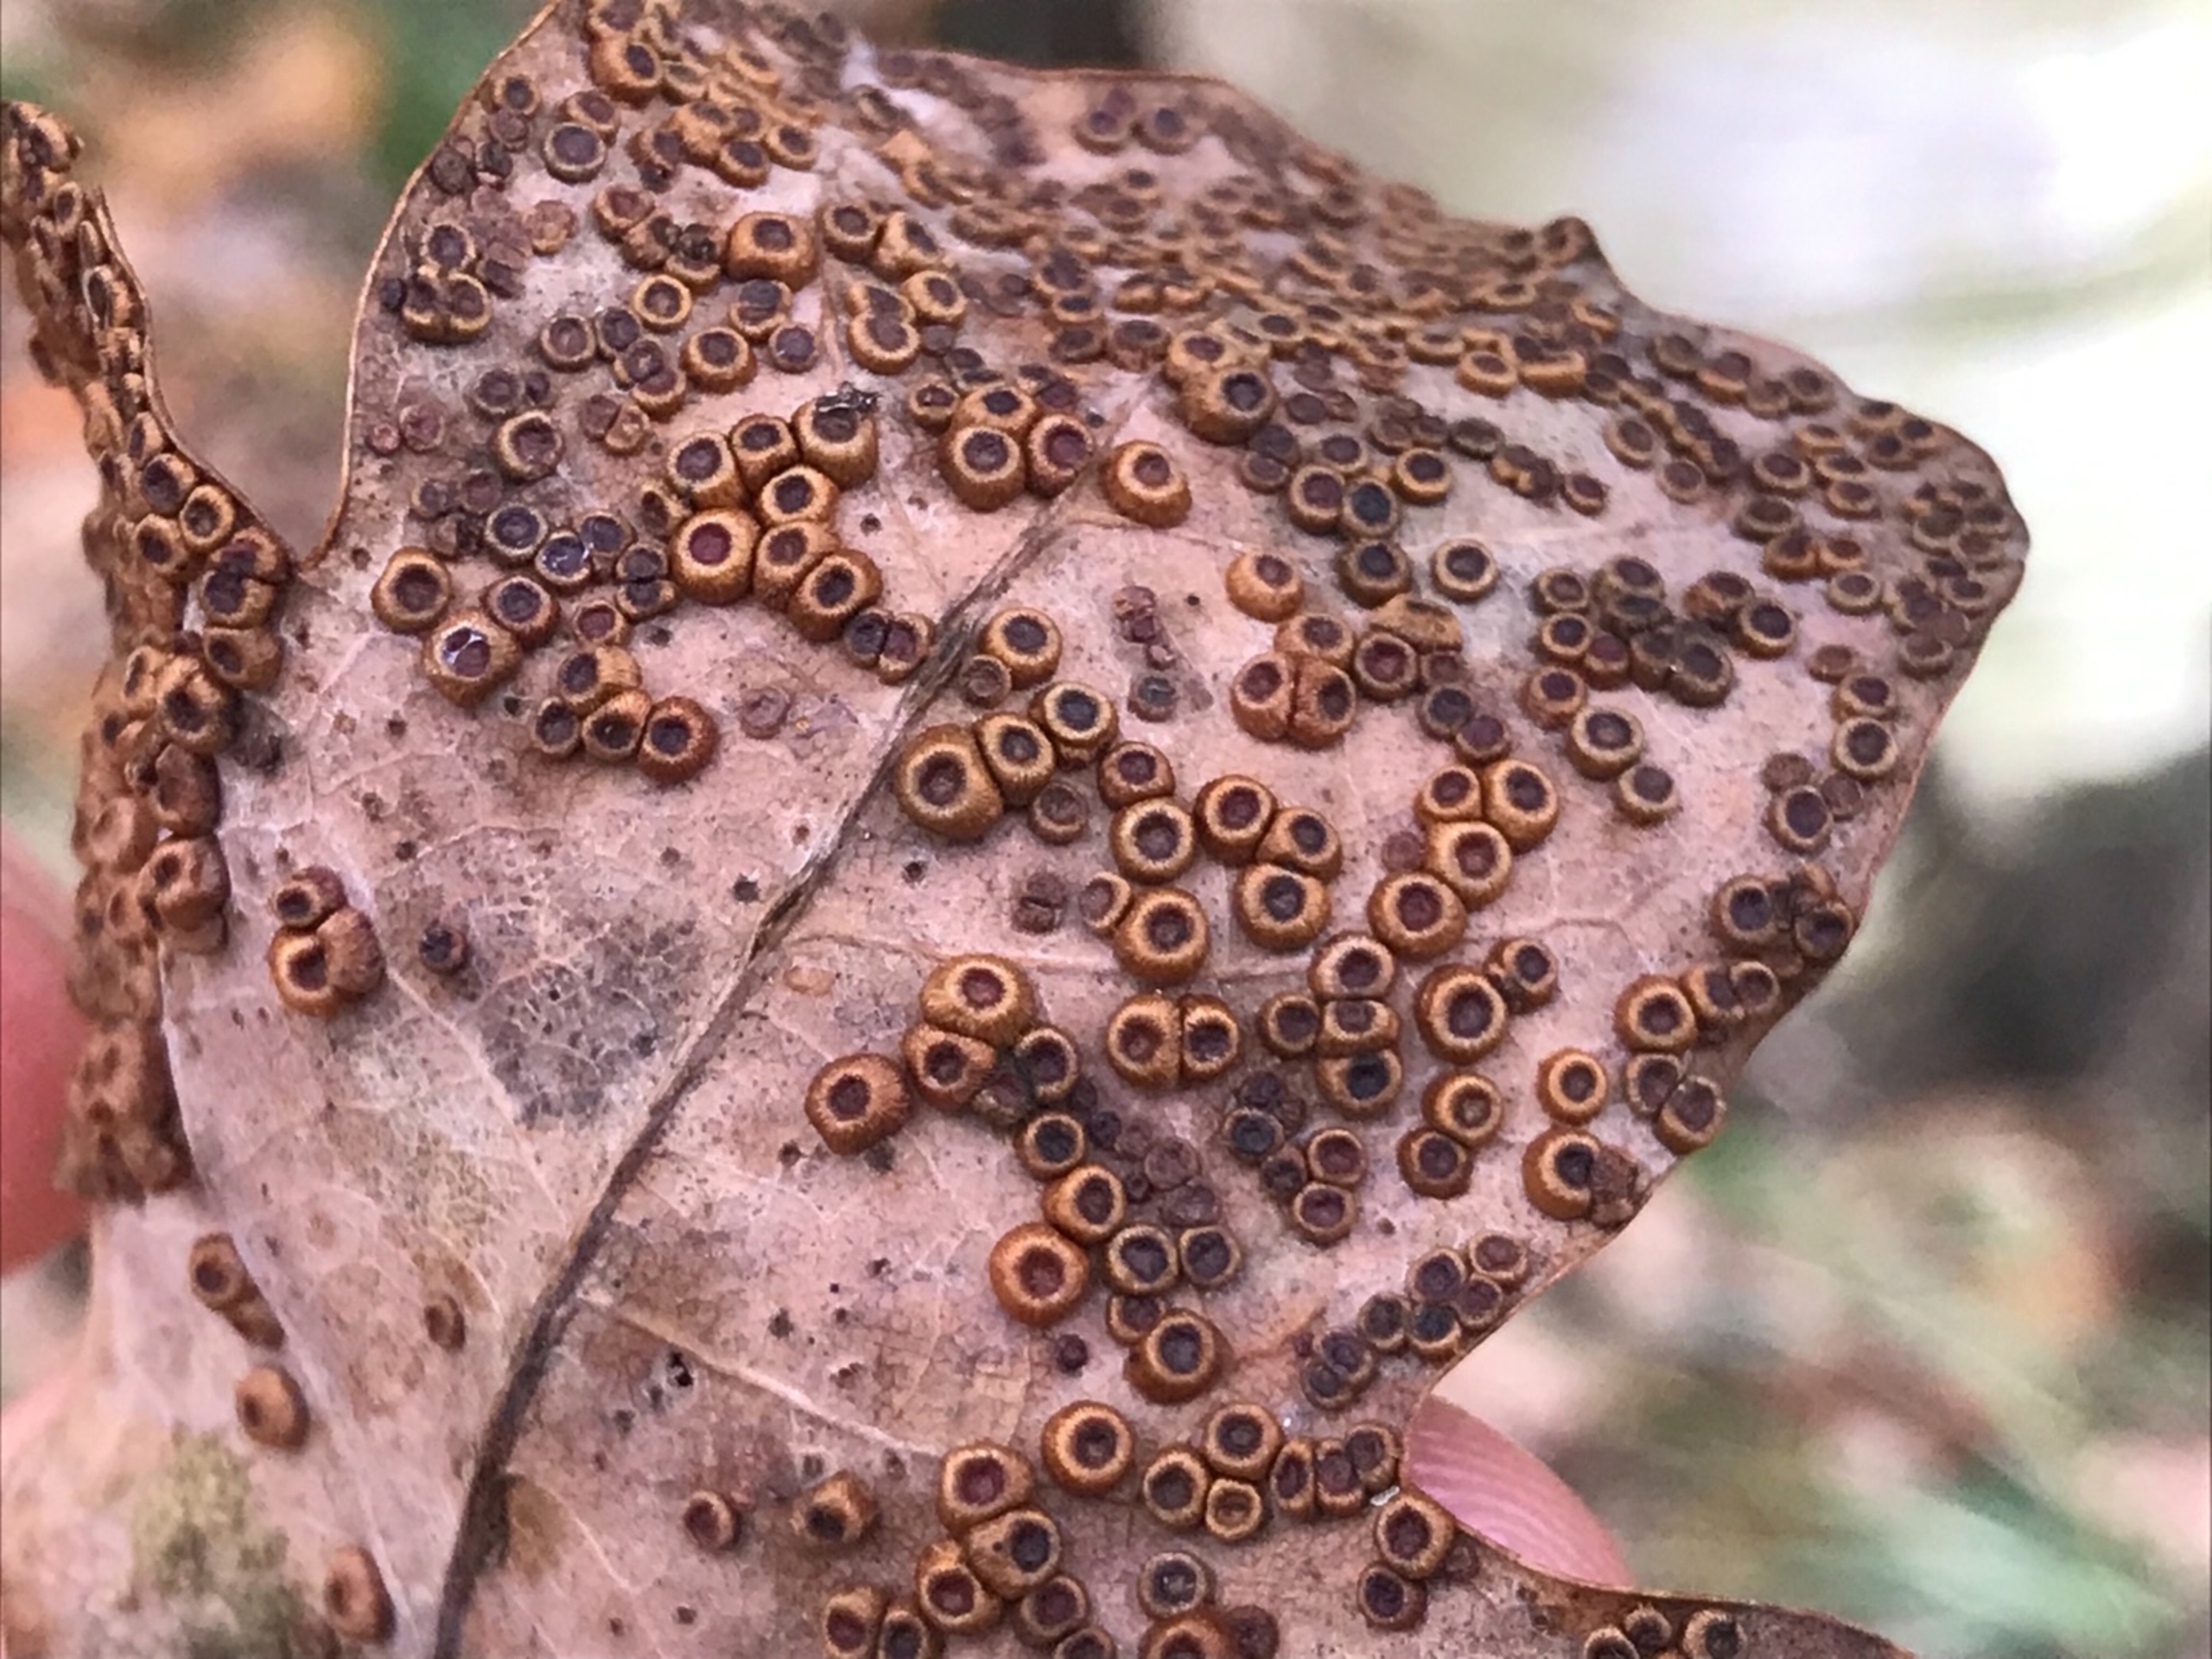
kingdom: Animalia
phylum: Arthropoda
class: Insecta
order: Hymenoptera
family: Cynipidae
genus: Neuroterus
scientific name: Neuroterus numismalis
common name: Knapgalhveps
